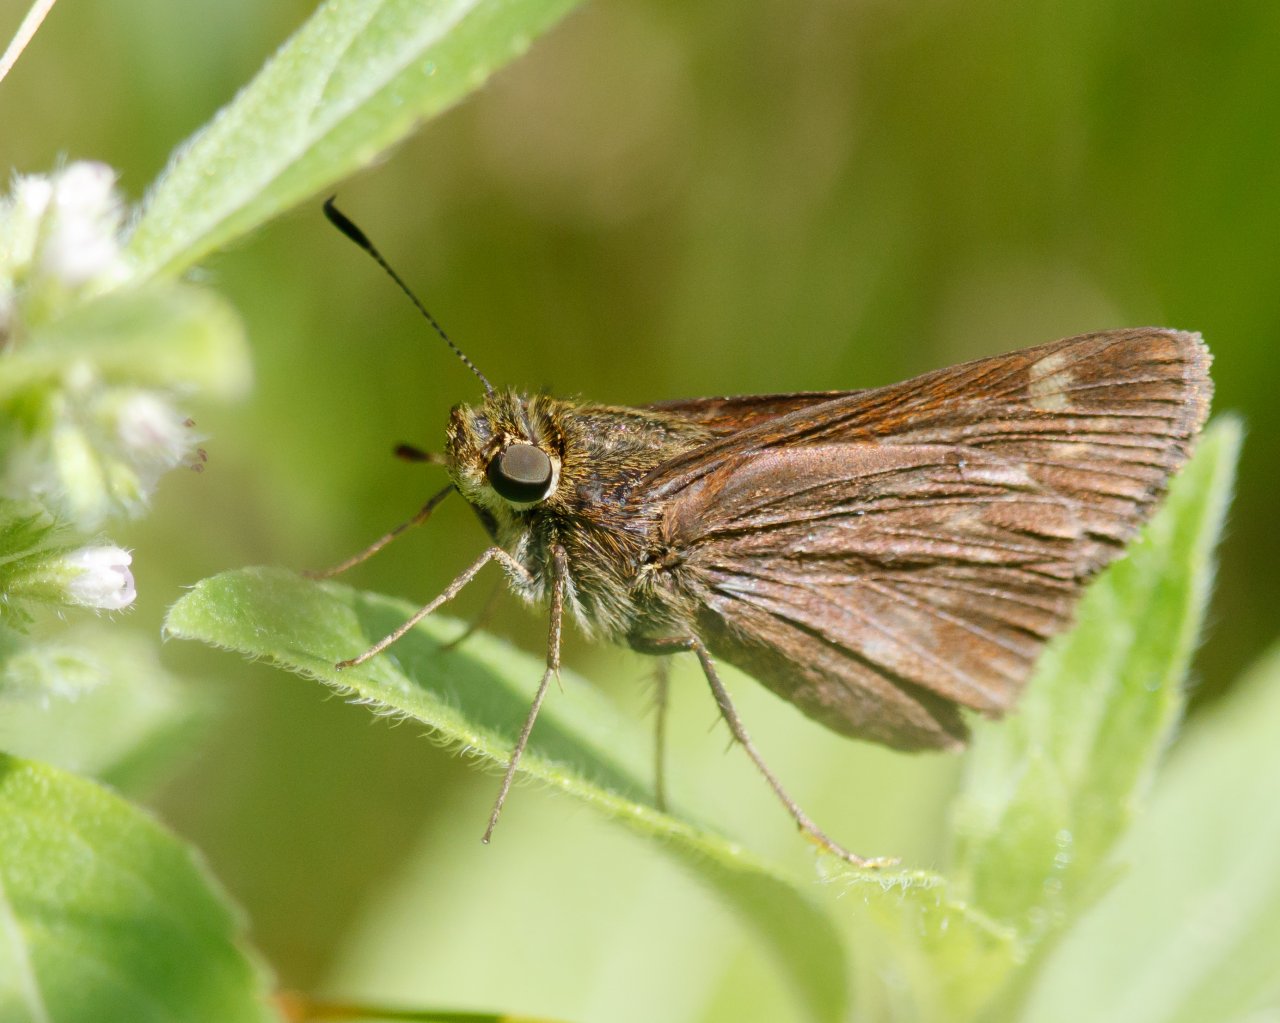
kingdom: Animalia
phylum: Arthropoda
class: Insecta
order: Lepidoptera
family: Hesperiidae
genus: Polites
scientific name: Polites egeremet
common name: Northern Broken-Dash
